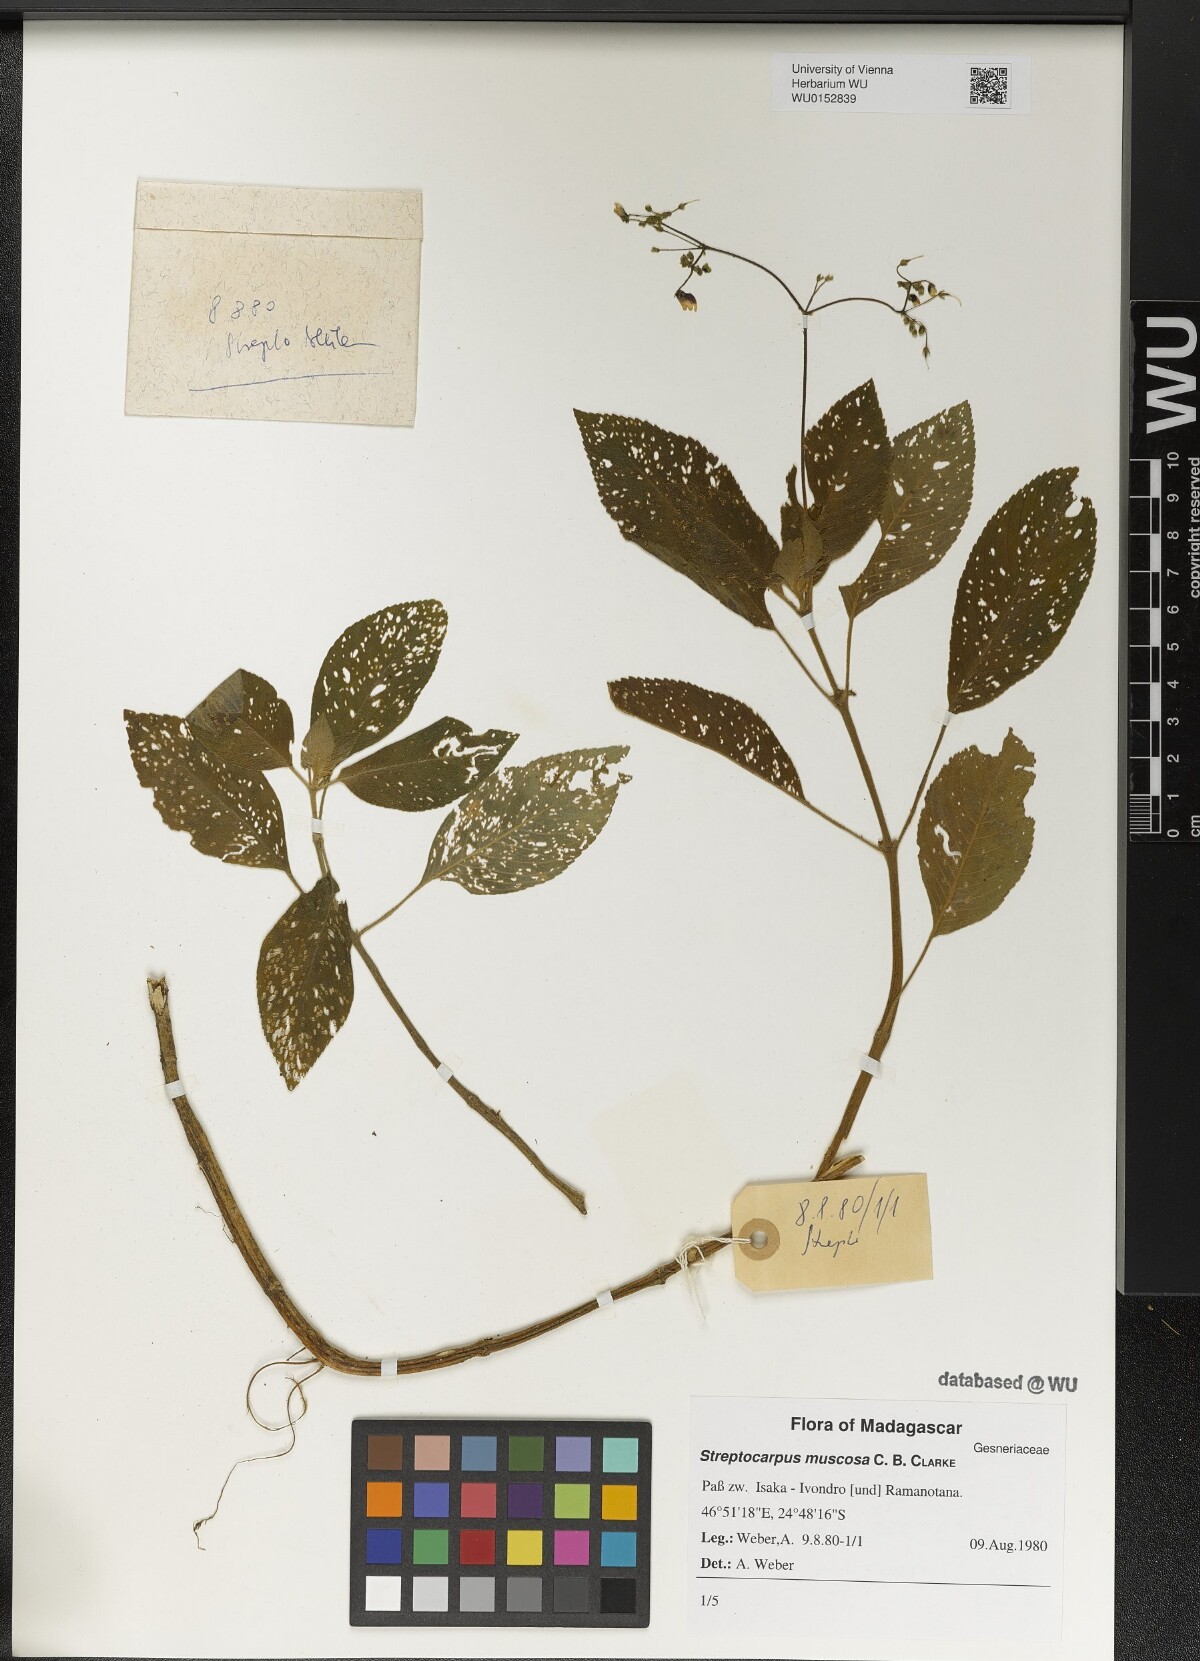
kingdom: Plantae
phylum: Tracheophyta
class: Magnoliopsida
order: Lamiales
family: Gesneriaceae
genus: Streptocarpus
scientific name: Streptocarpus muscosa
